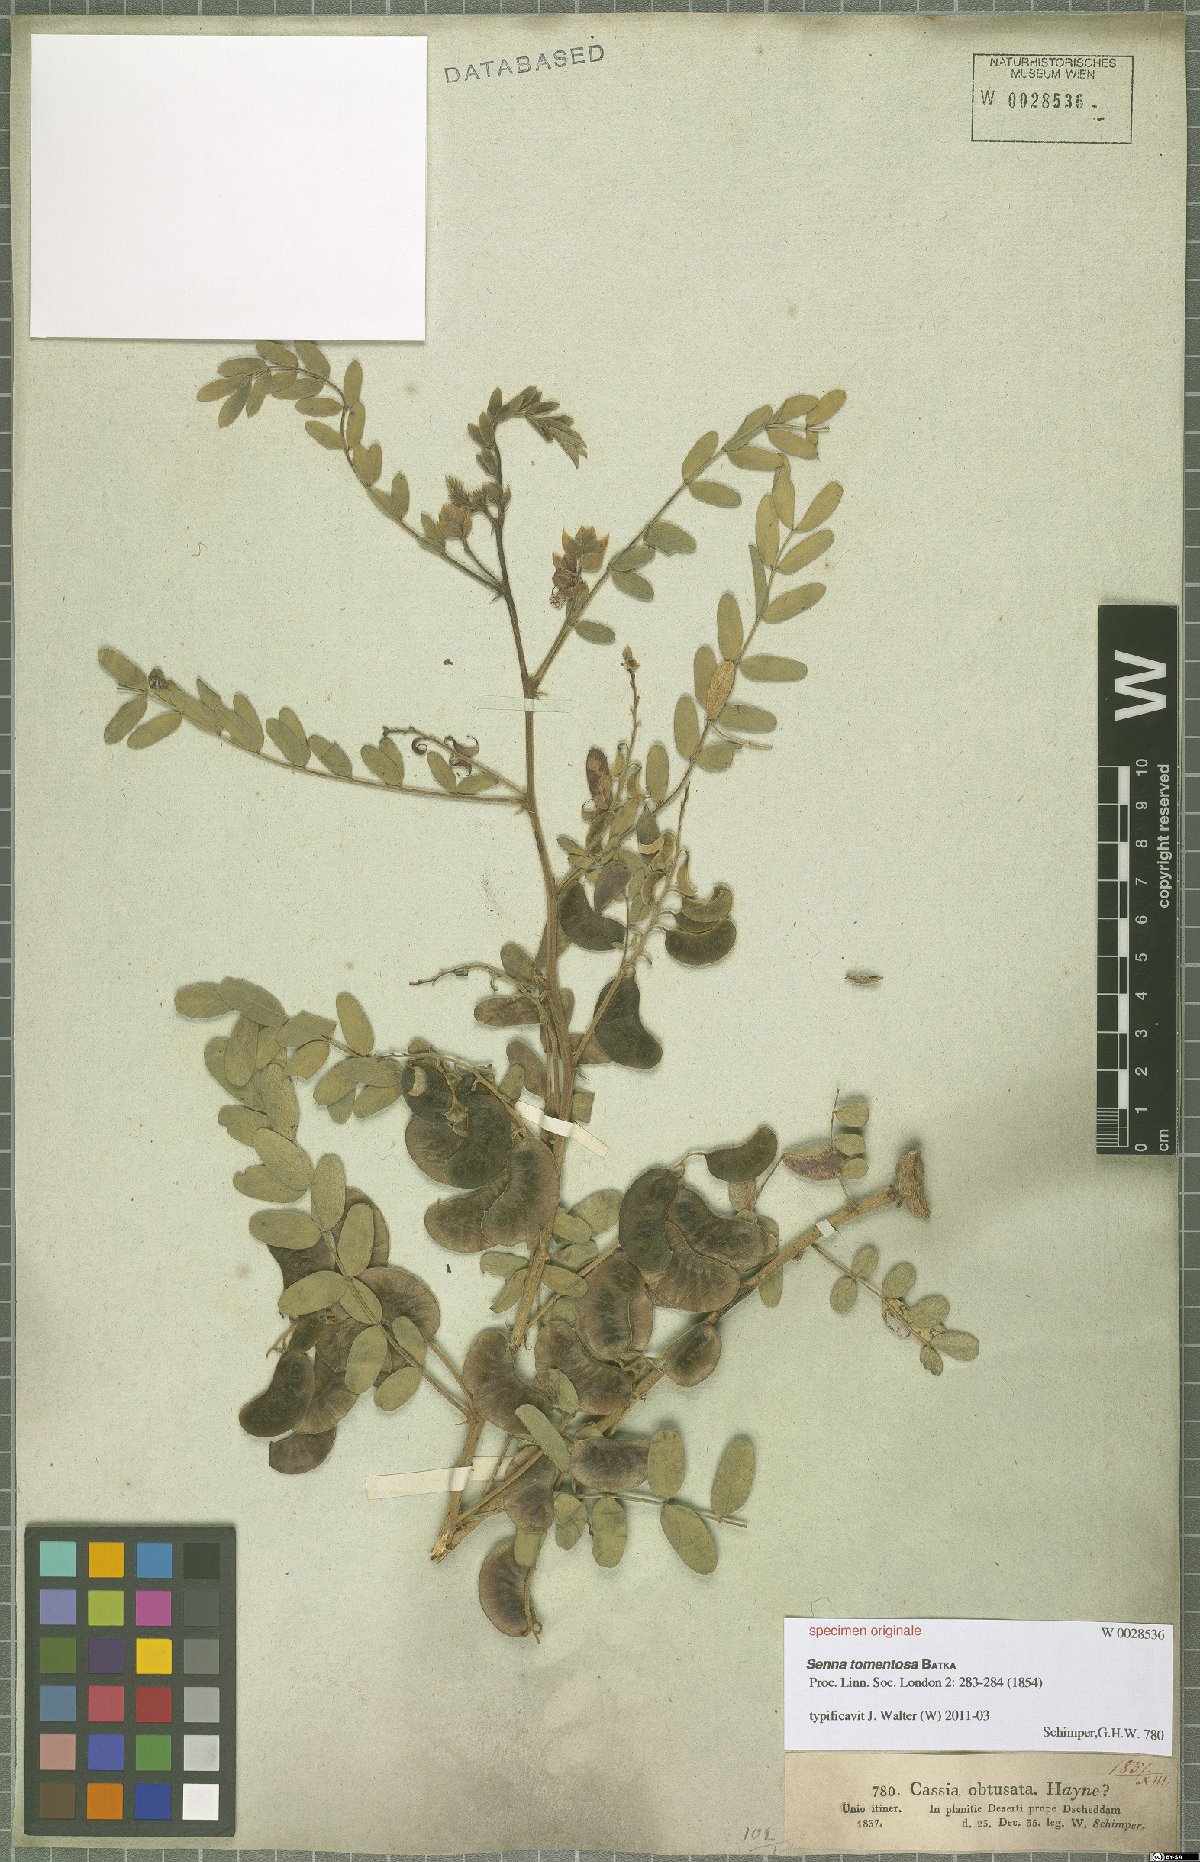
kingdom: Plantae
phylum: Tracheophyta
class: Magnoliopsida
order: Fabales
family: Fabaceae
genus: Senna
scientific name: Senna holosericea
